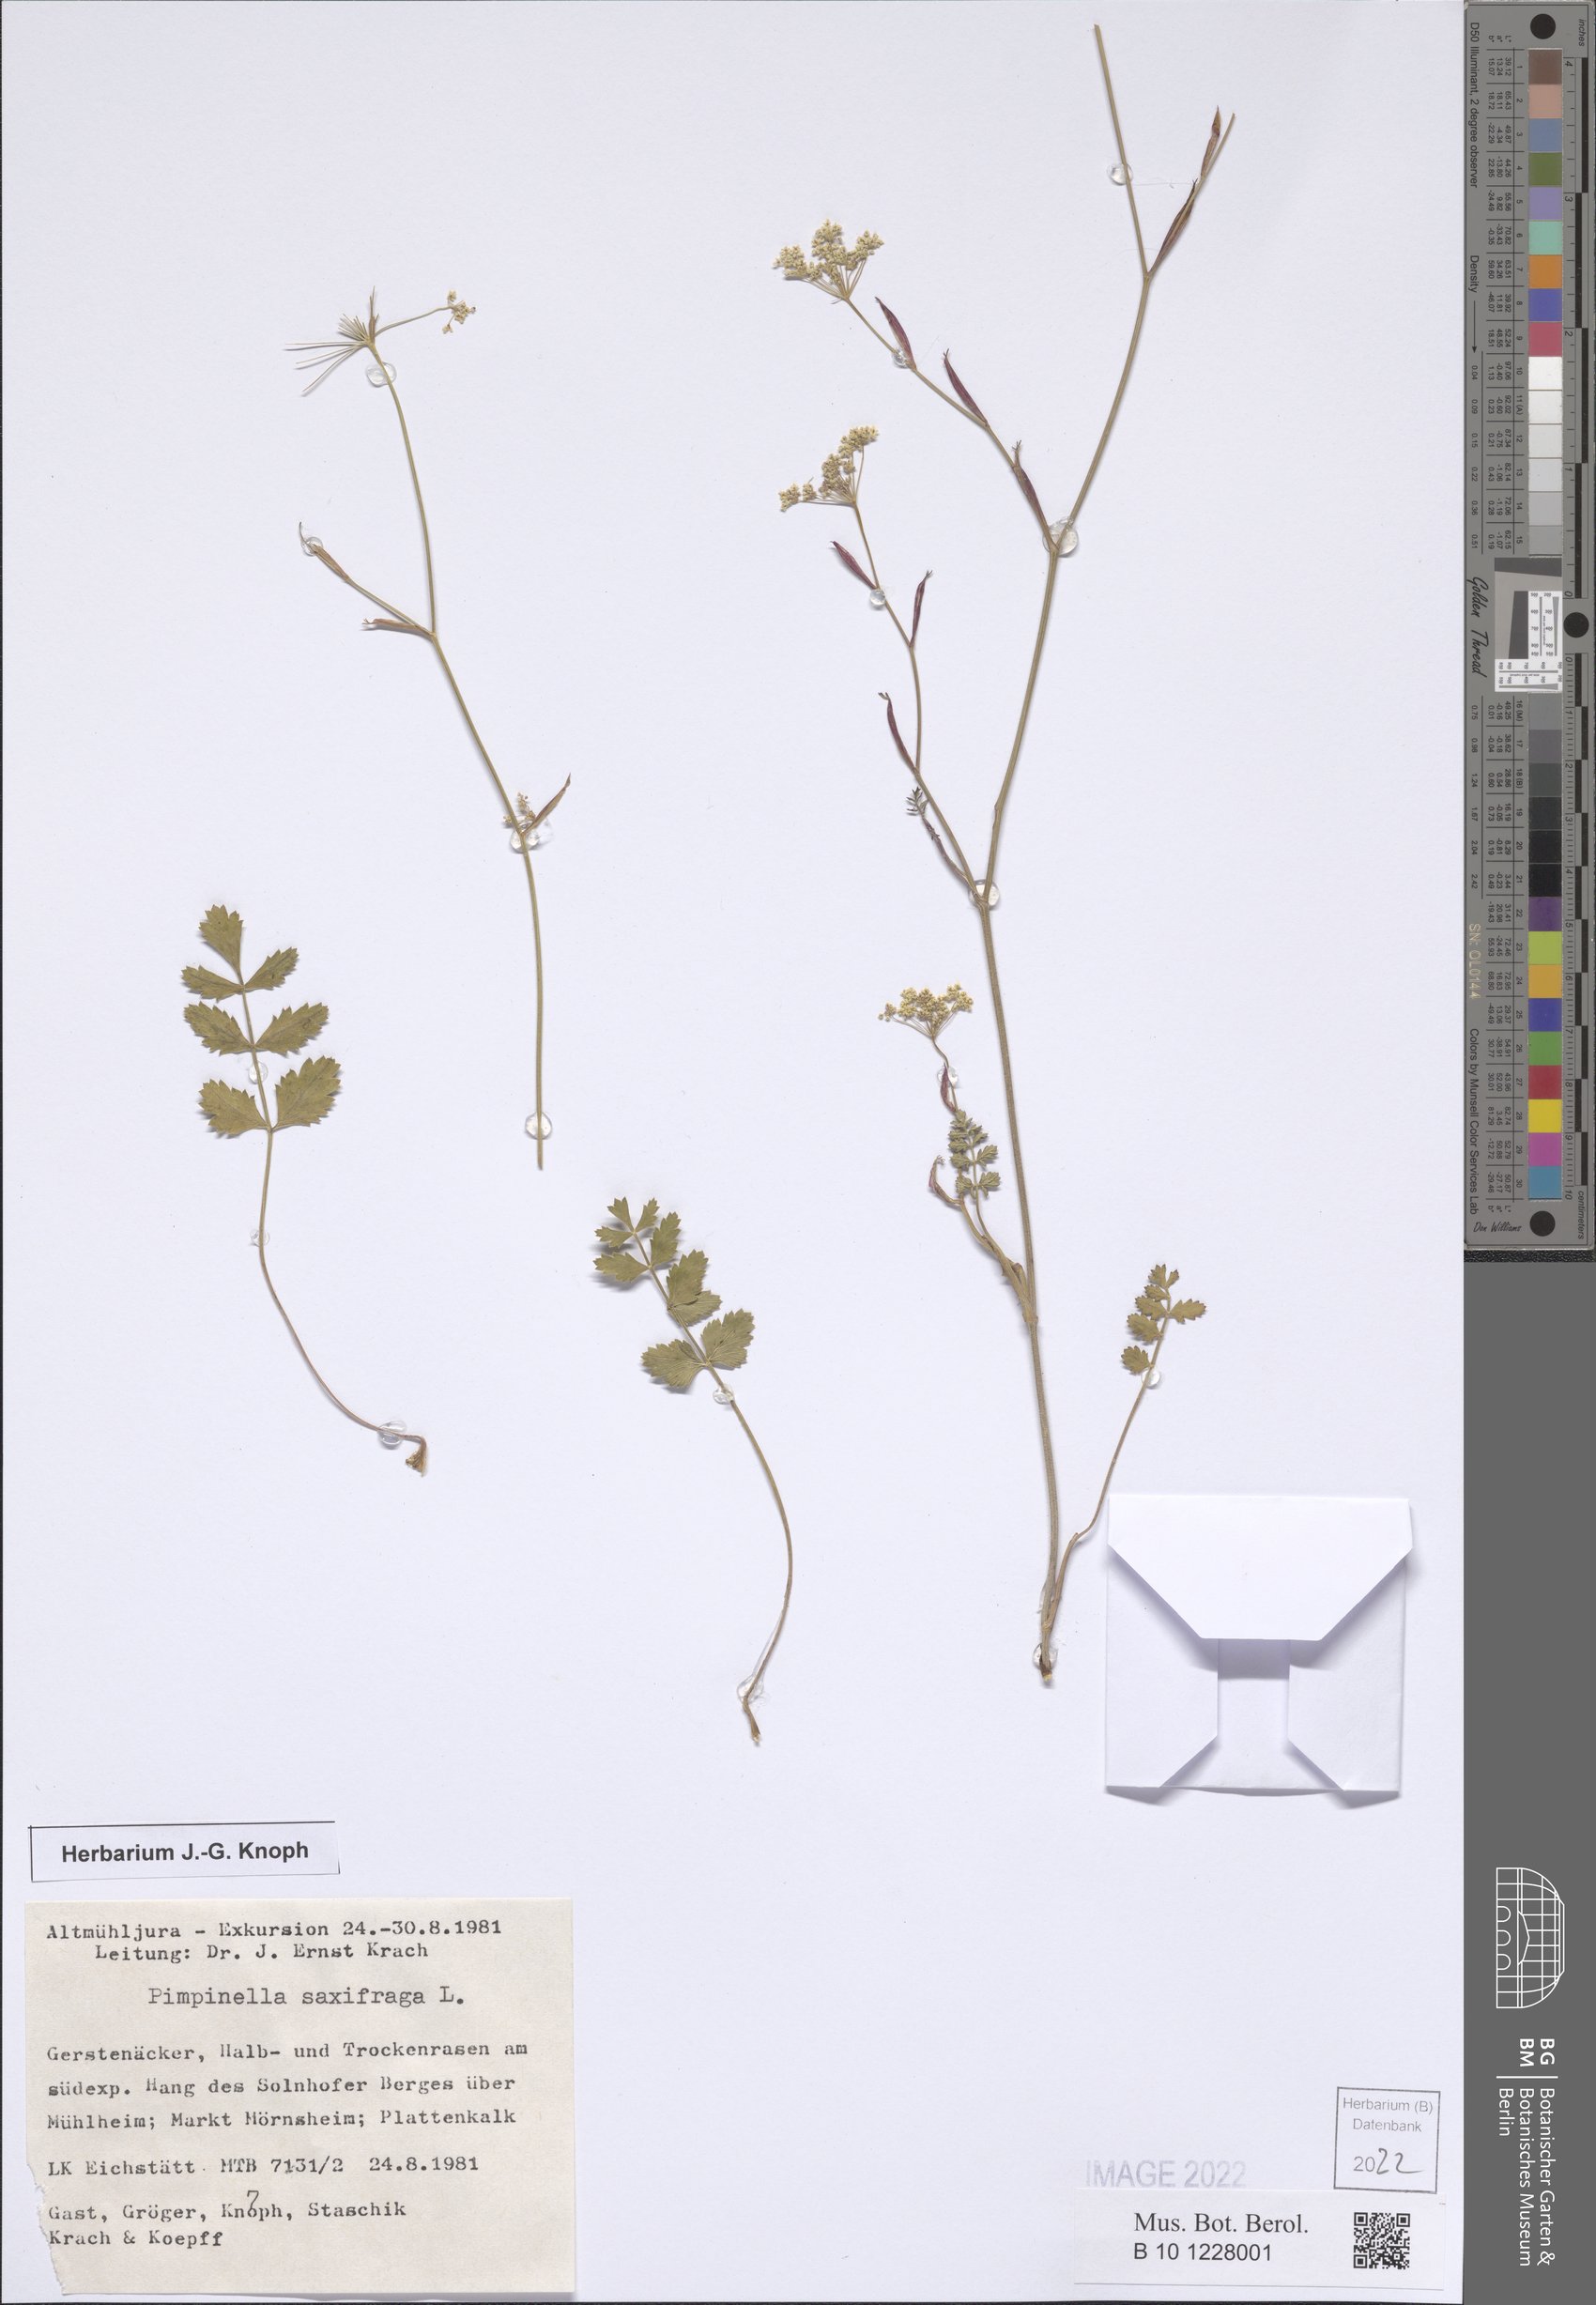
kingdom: Plantae
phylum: Tracheophyta
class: Magnoliopsida
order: Apiales
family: Apiaceae
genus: Pimpinella
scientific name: Pimpinella saxifraga
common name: Burnet-saxifrage
